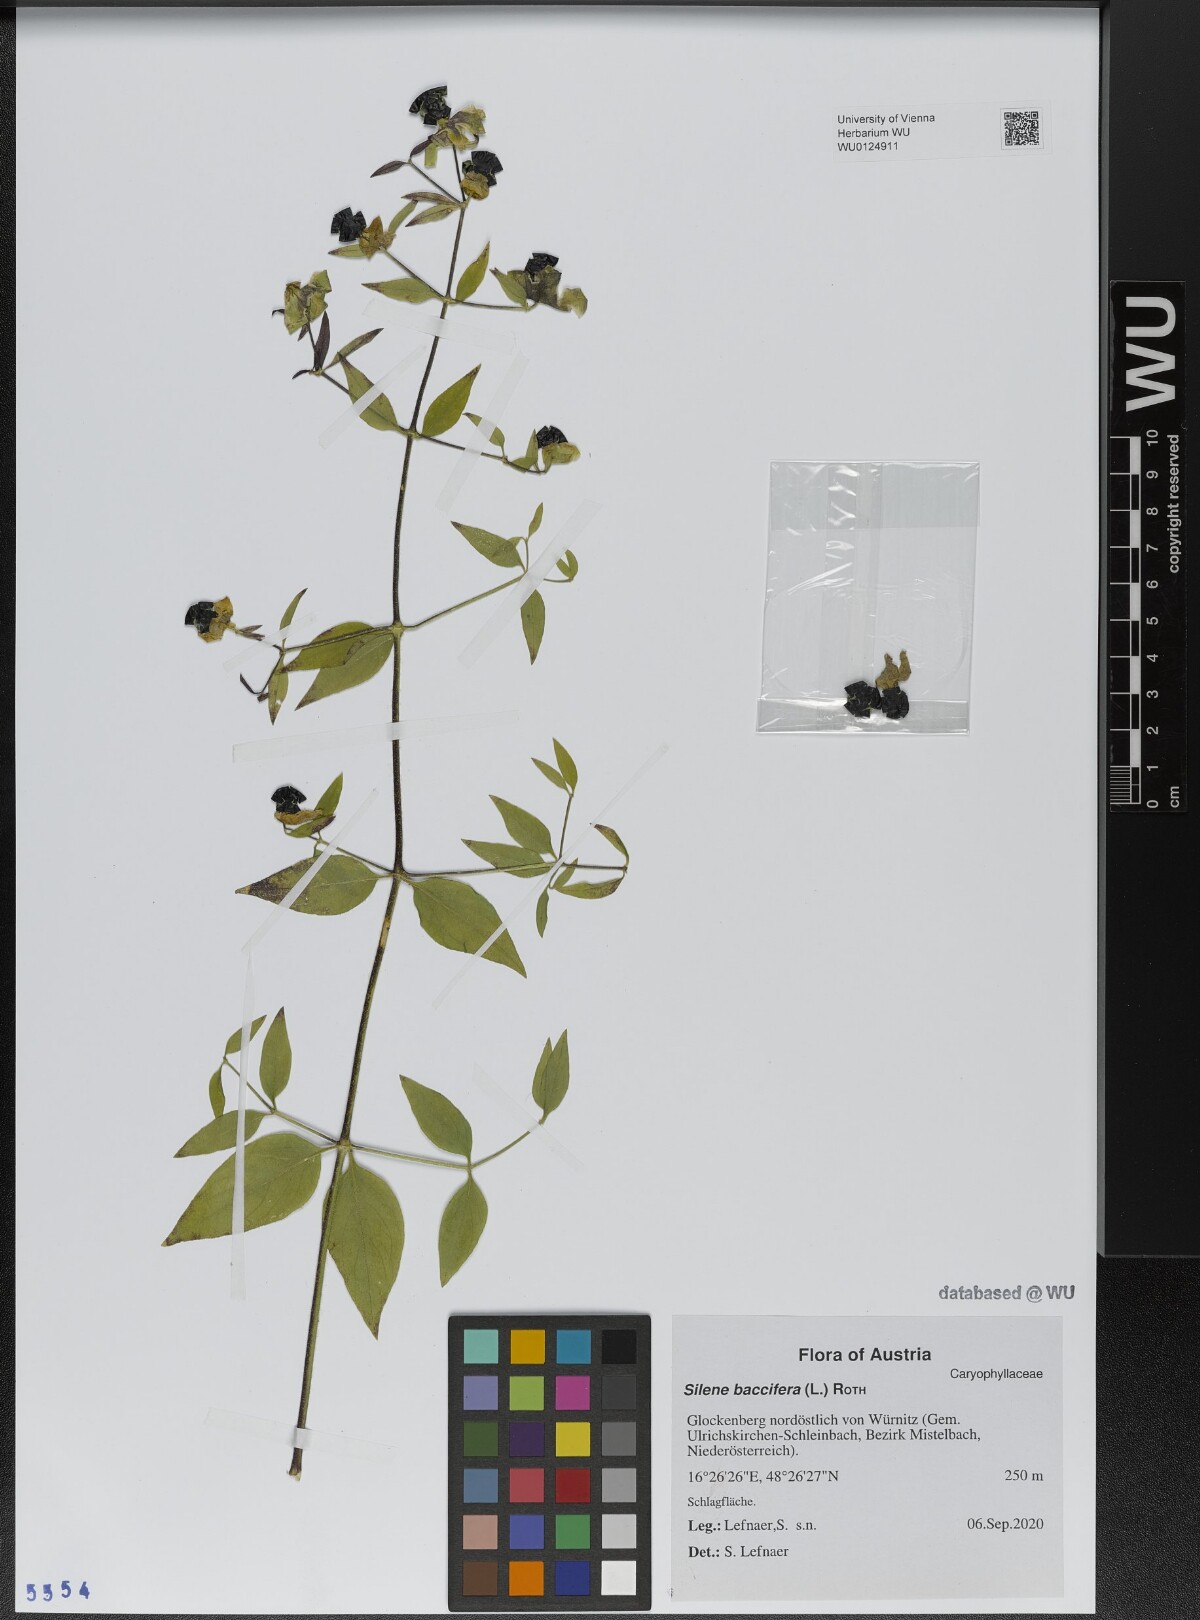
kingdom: Plantae
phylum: Tracheophyta
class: Magnoliopsida
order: Caryophyllales
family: Caryophyllaceae
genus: Silene
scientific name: Silene baccifera
